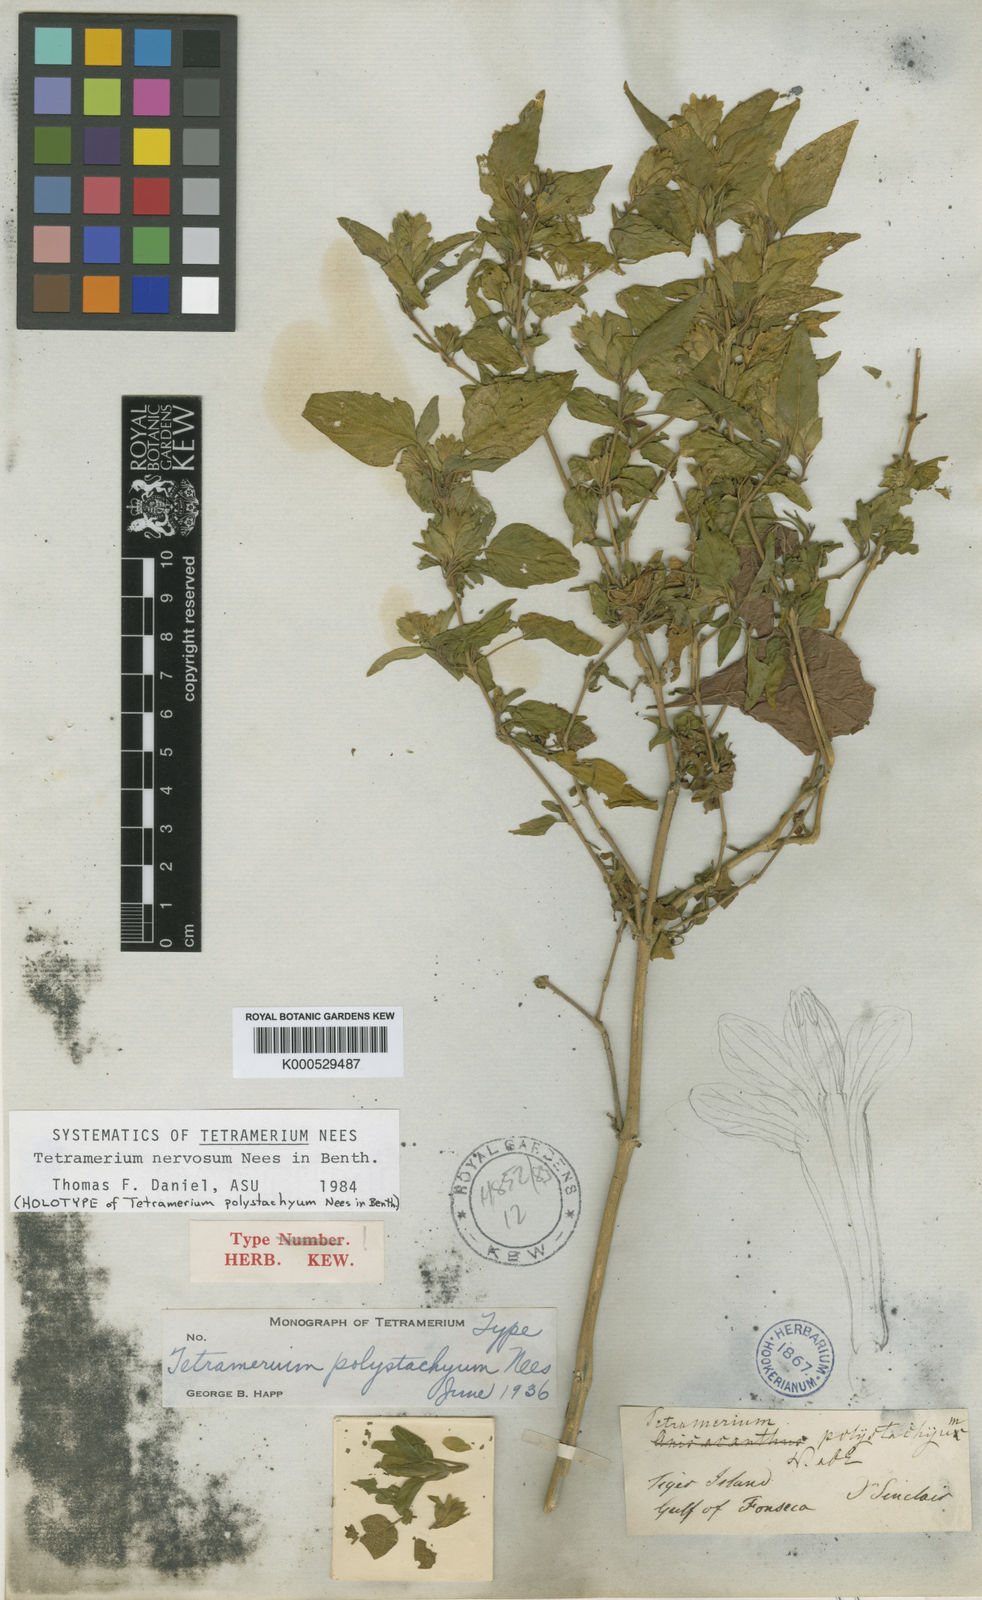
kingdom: Plantae
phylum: Tracheophyta
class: Magnoliopsida
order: Lamiales
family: Acanthaceae
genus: Tetramerium
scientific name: Tetramerium nervosum
